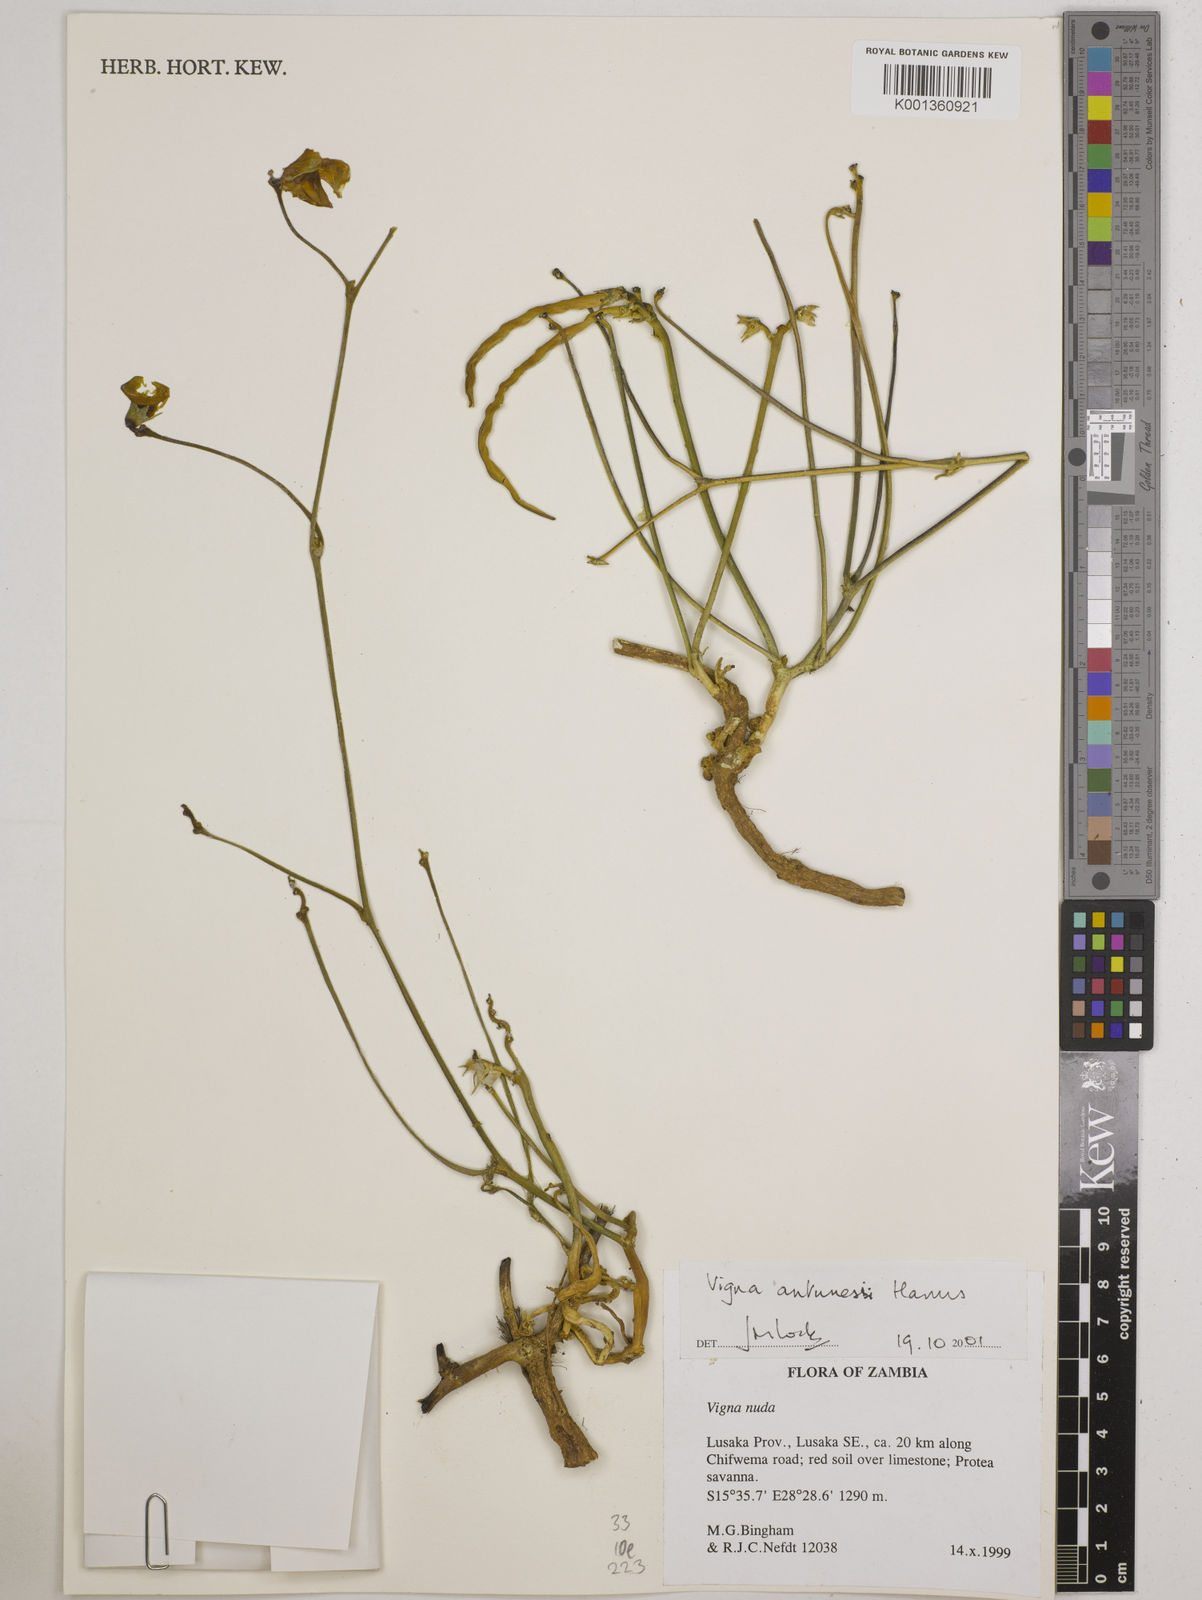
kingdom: Plantae
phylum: Tracheophyta
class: Magnoliopsida
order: Fabales
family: Fabaceae
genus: Vigna
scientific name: Vigna antunesii
